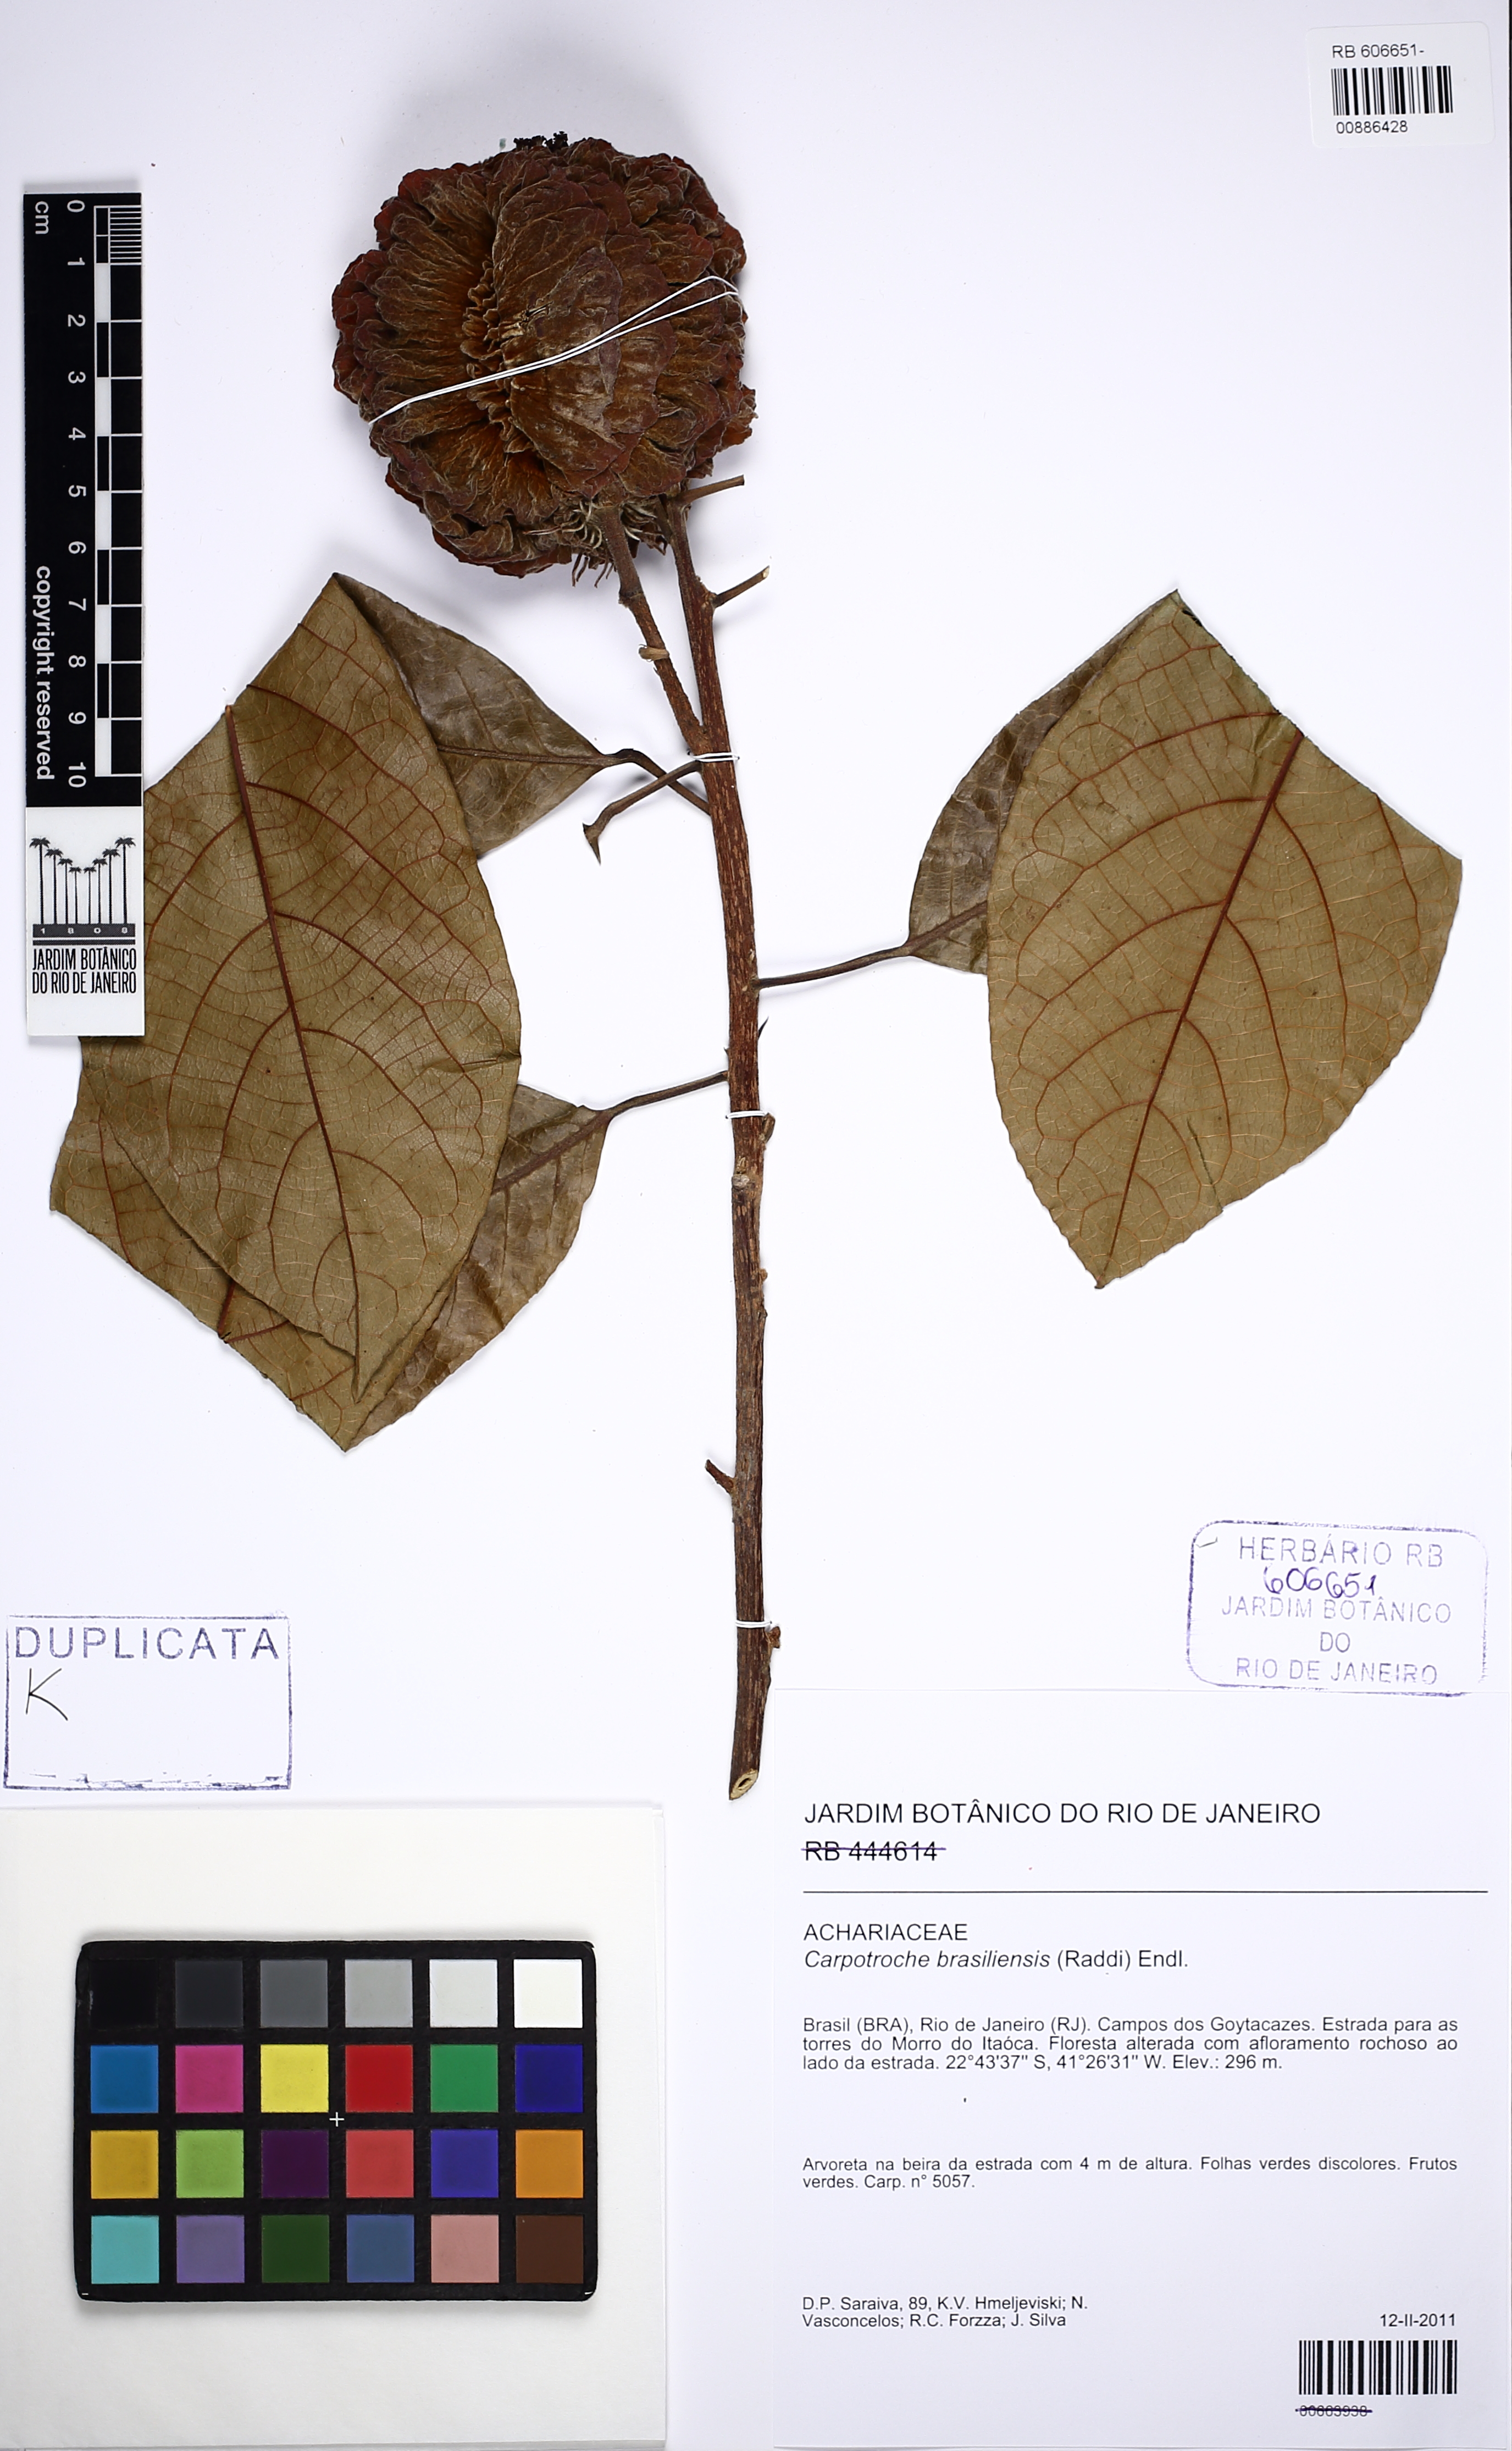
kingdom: Plantae
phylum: Tracheophyta
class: Magnoliopsida
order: Malpighiales
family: Achariaceae
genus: Carpotroche
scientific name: Carpotroche brasiliensis
